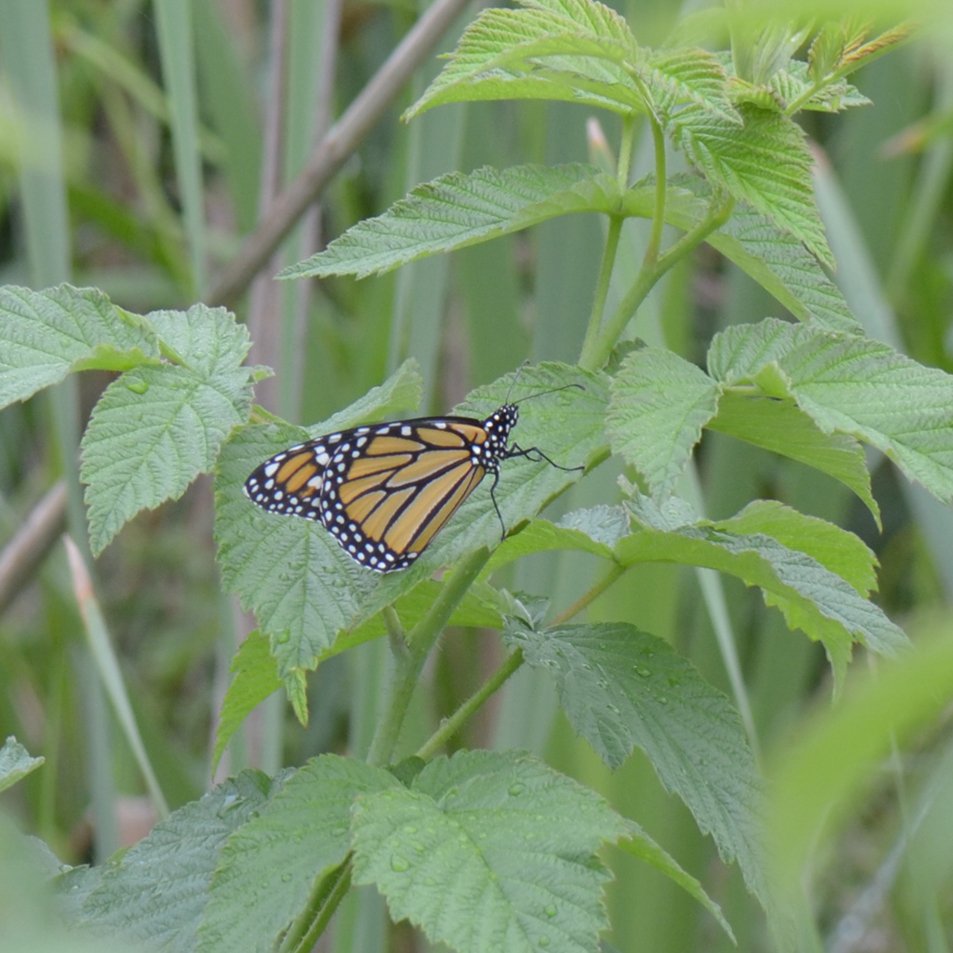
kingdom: Animalia
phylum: Arthropoda
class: Insecta
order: Lepidoptera
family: Nymphalidae
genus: Danaus
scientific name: Danaus plexippus
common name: Monarch
